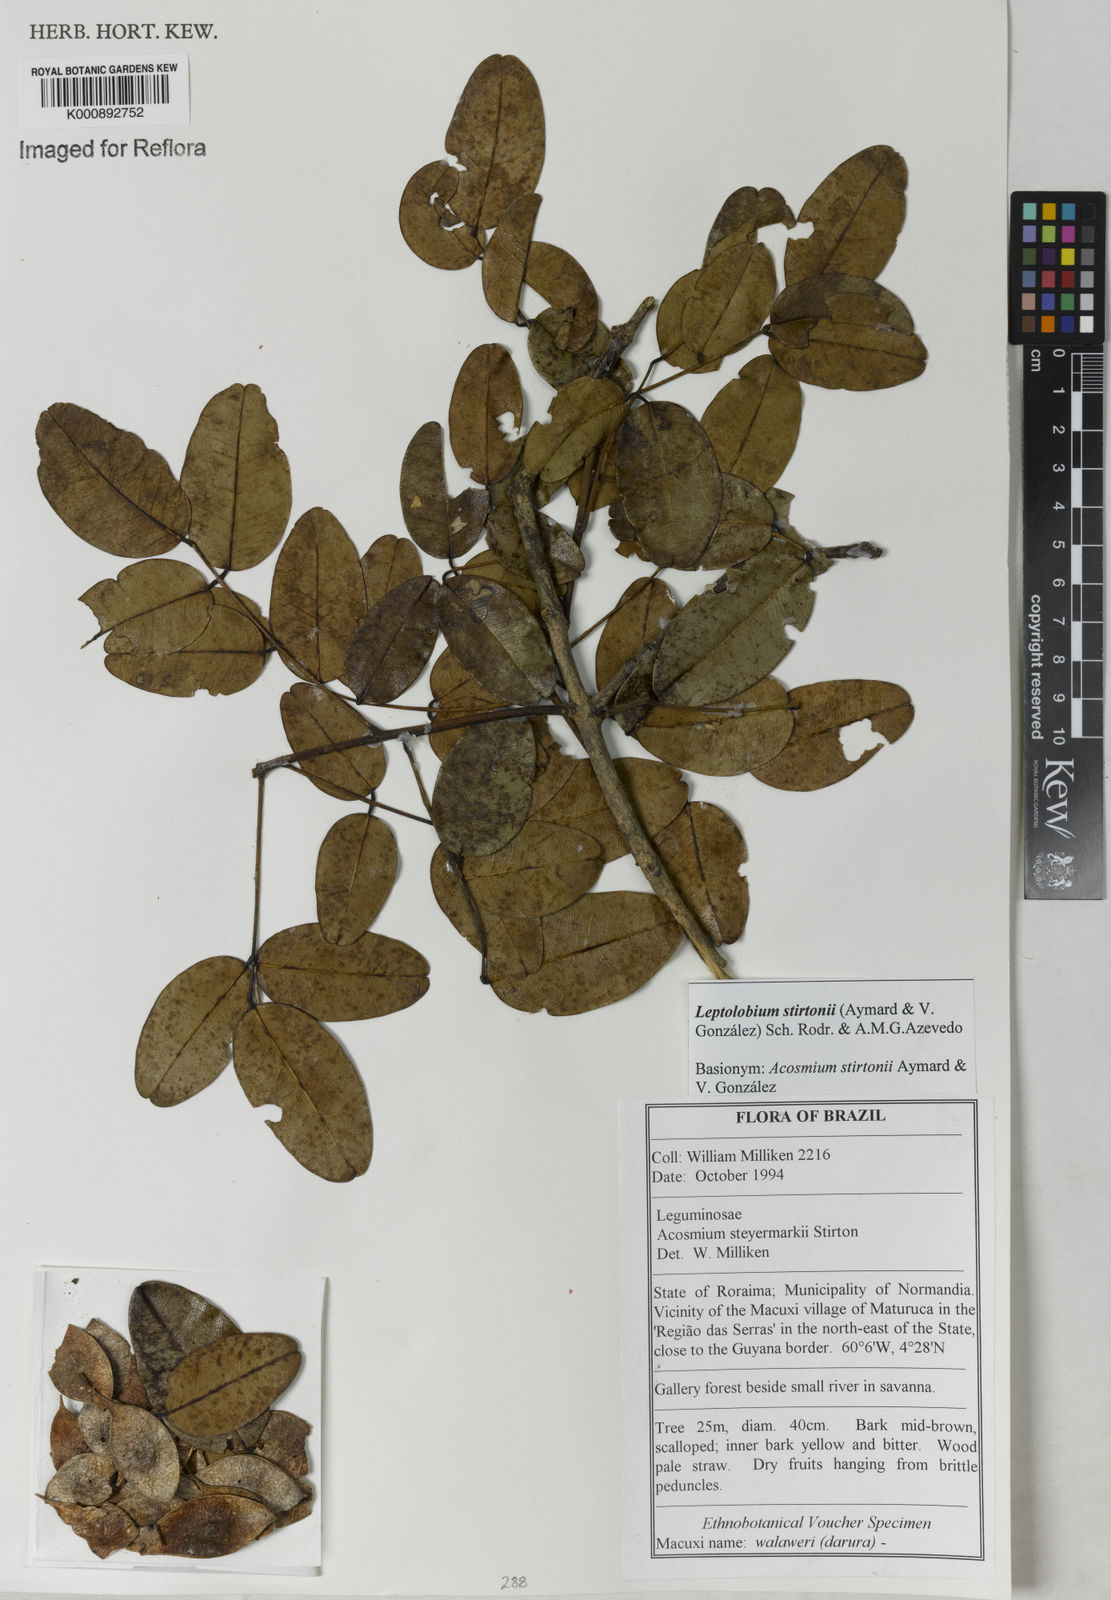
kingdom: Plantae
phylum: Tracheophyta
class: Magnoliopsida
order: Fabales
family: Fabaceae
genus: Leptolobium
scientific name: Leptolobium
